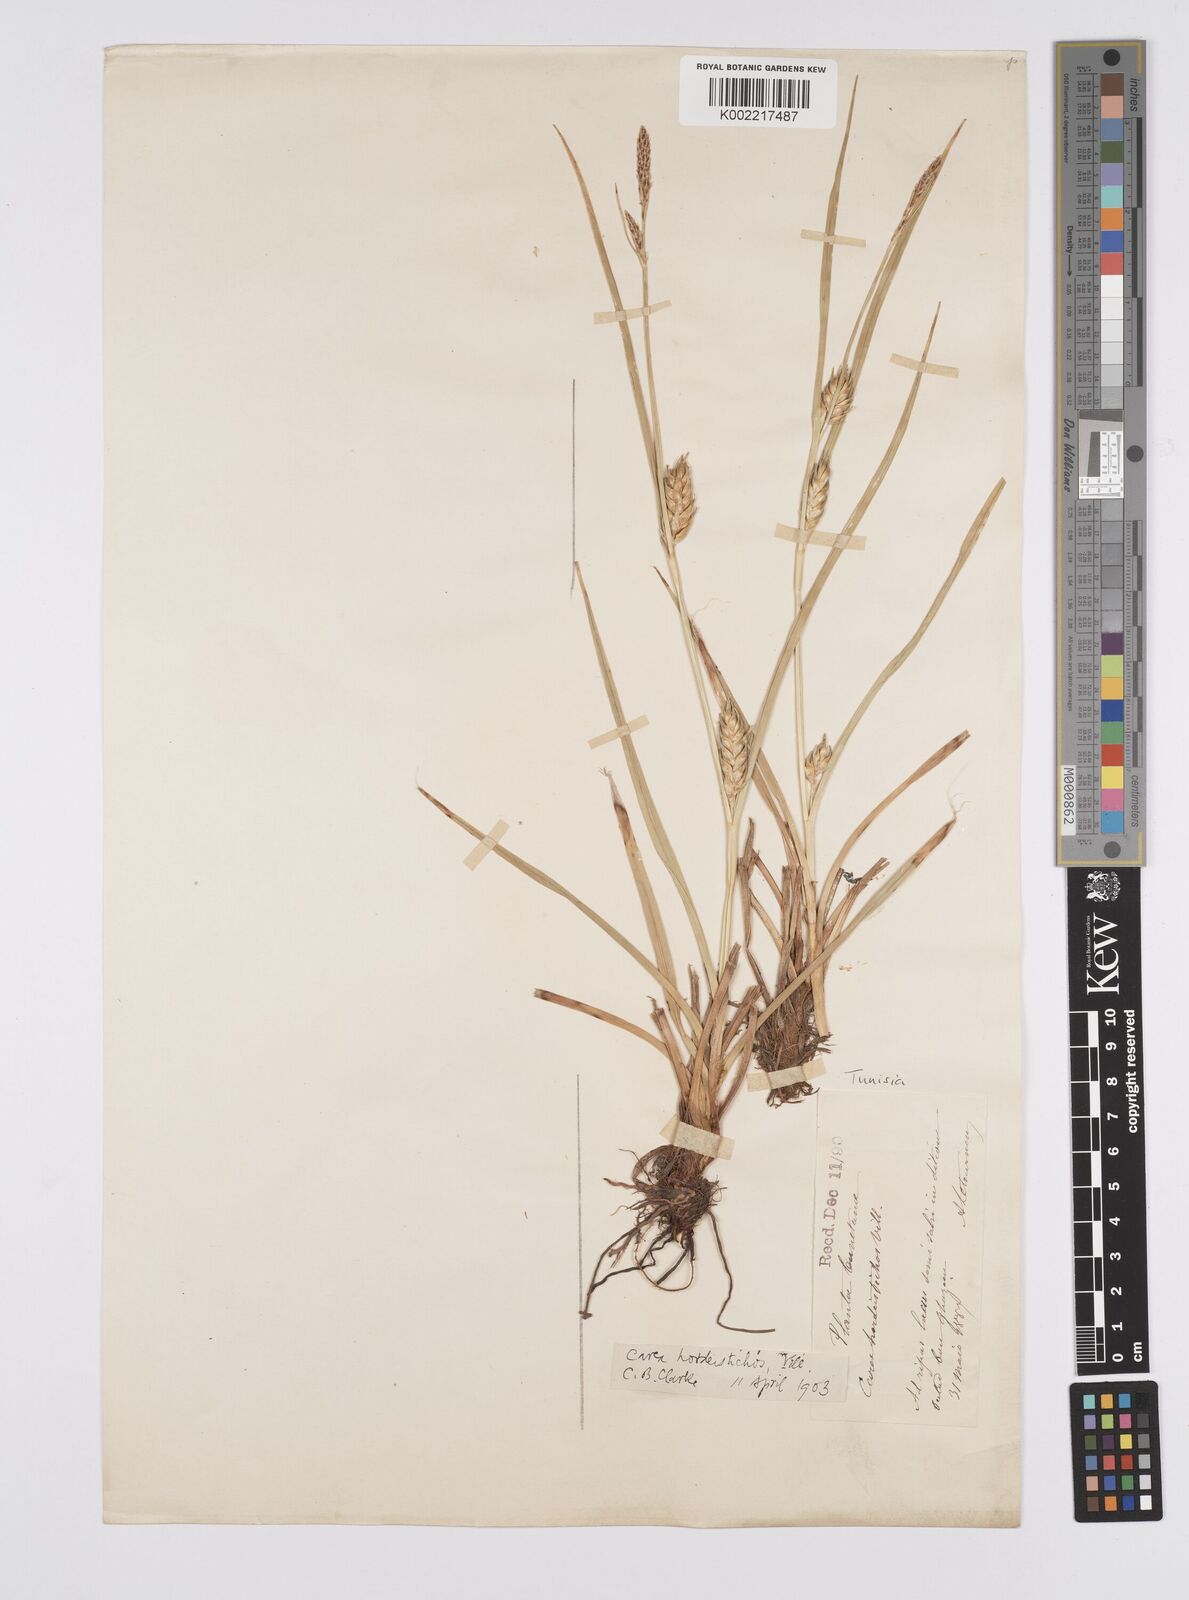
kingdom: Plantae
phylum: Tracheophyta
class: Liliopsida
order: Poales
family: Cyperaceae
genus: Carex
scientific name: Carex hordeistichos
